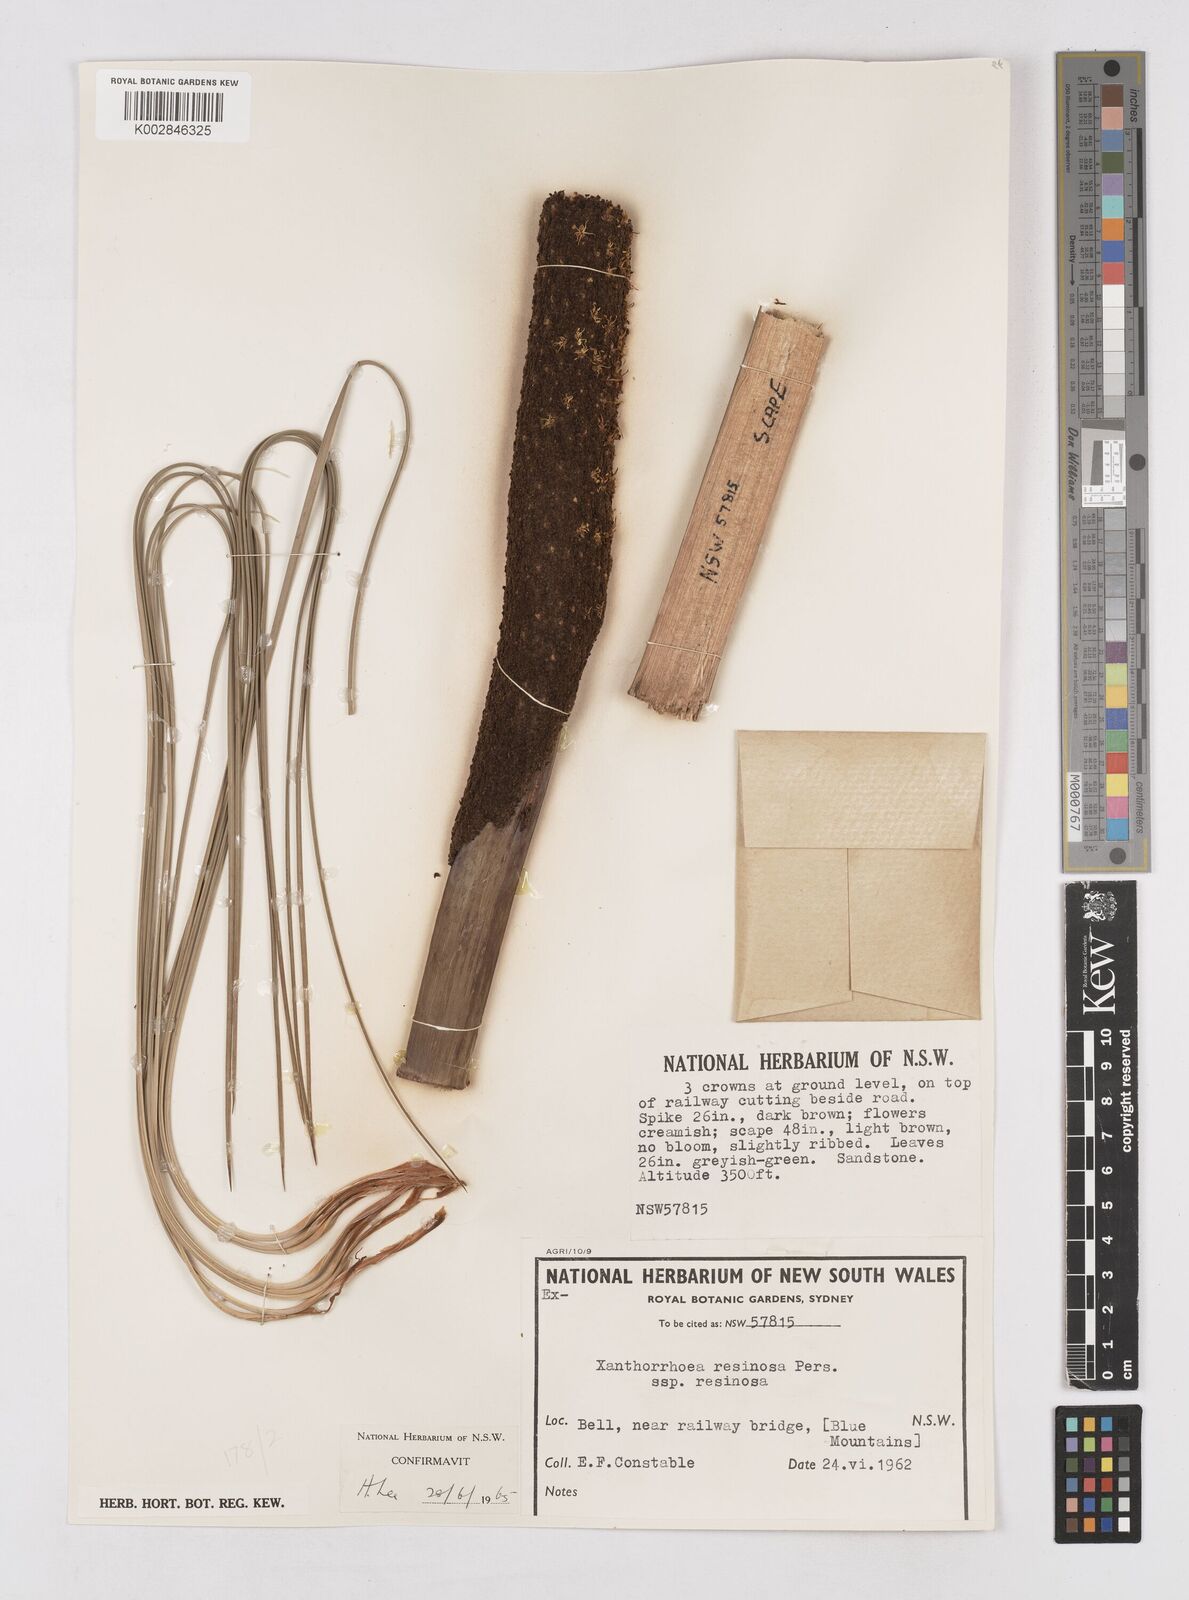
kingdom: Plantae
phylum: Tracheophyta
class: Liliopsida
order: Asparagales
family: Asphodelaceae
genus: Xanthorrhoea
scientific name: Xanthorrhoea
